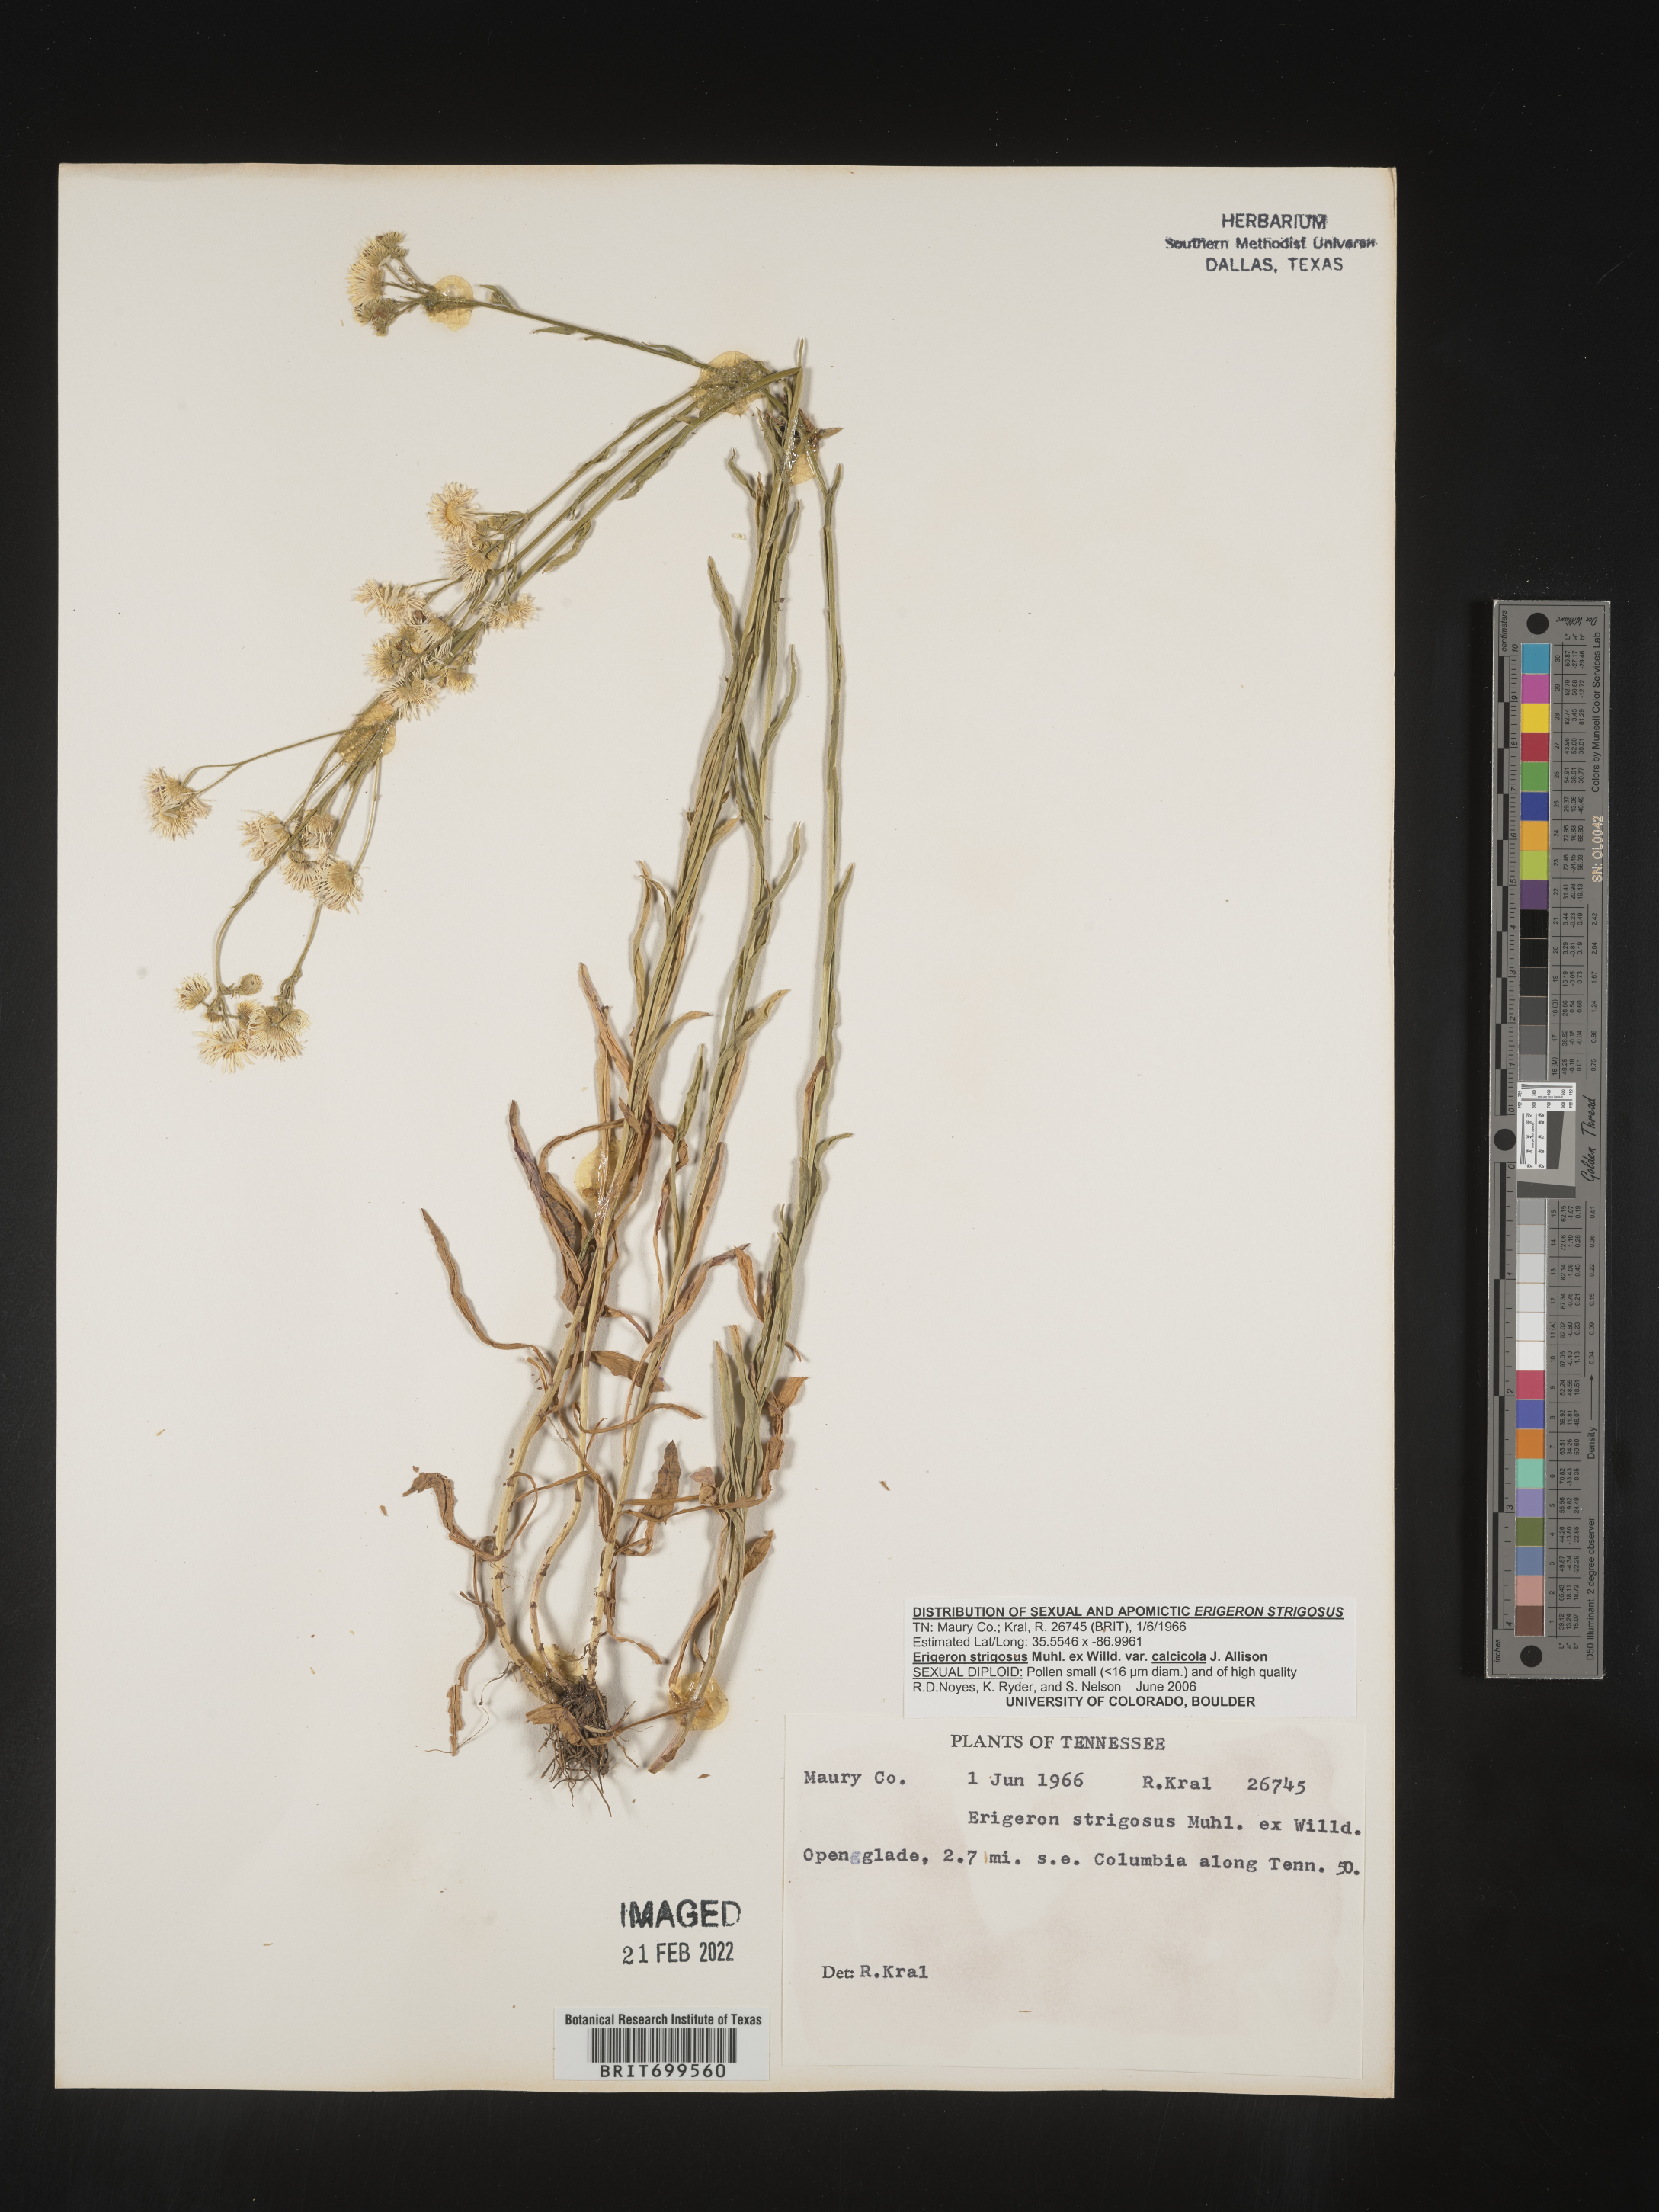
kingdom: Plantae
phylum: Tracheophyta
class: Magnoliopsida
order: Asterales
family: Asteraceae
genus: Erigeron
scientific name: Erigeron strigosus
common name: Common eastern fleabane
